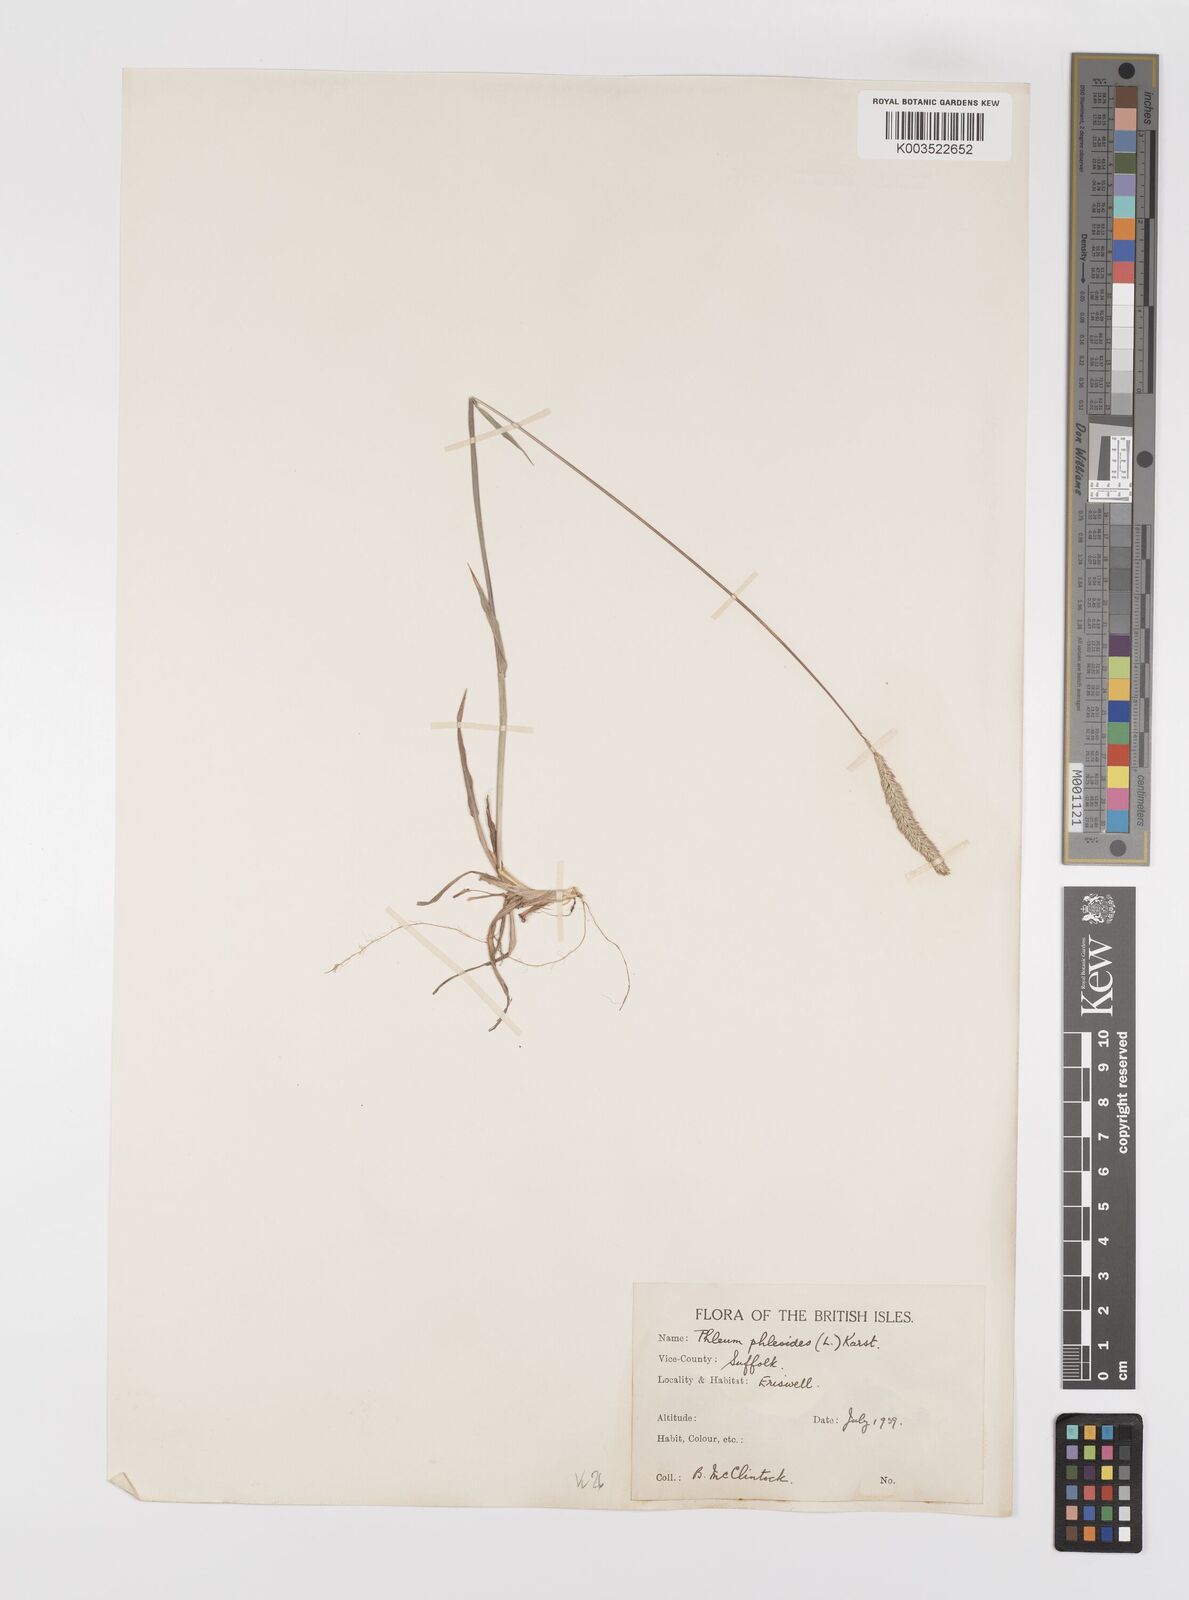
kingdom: Plantae
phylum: Tracheophyta
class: Liliopsida
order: Poales
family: Poaceae
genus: Phleum
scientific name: Phleum phleoides
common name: Purple-stem cat's-tail
